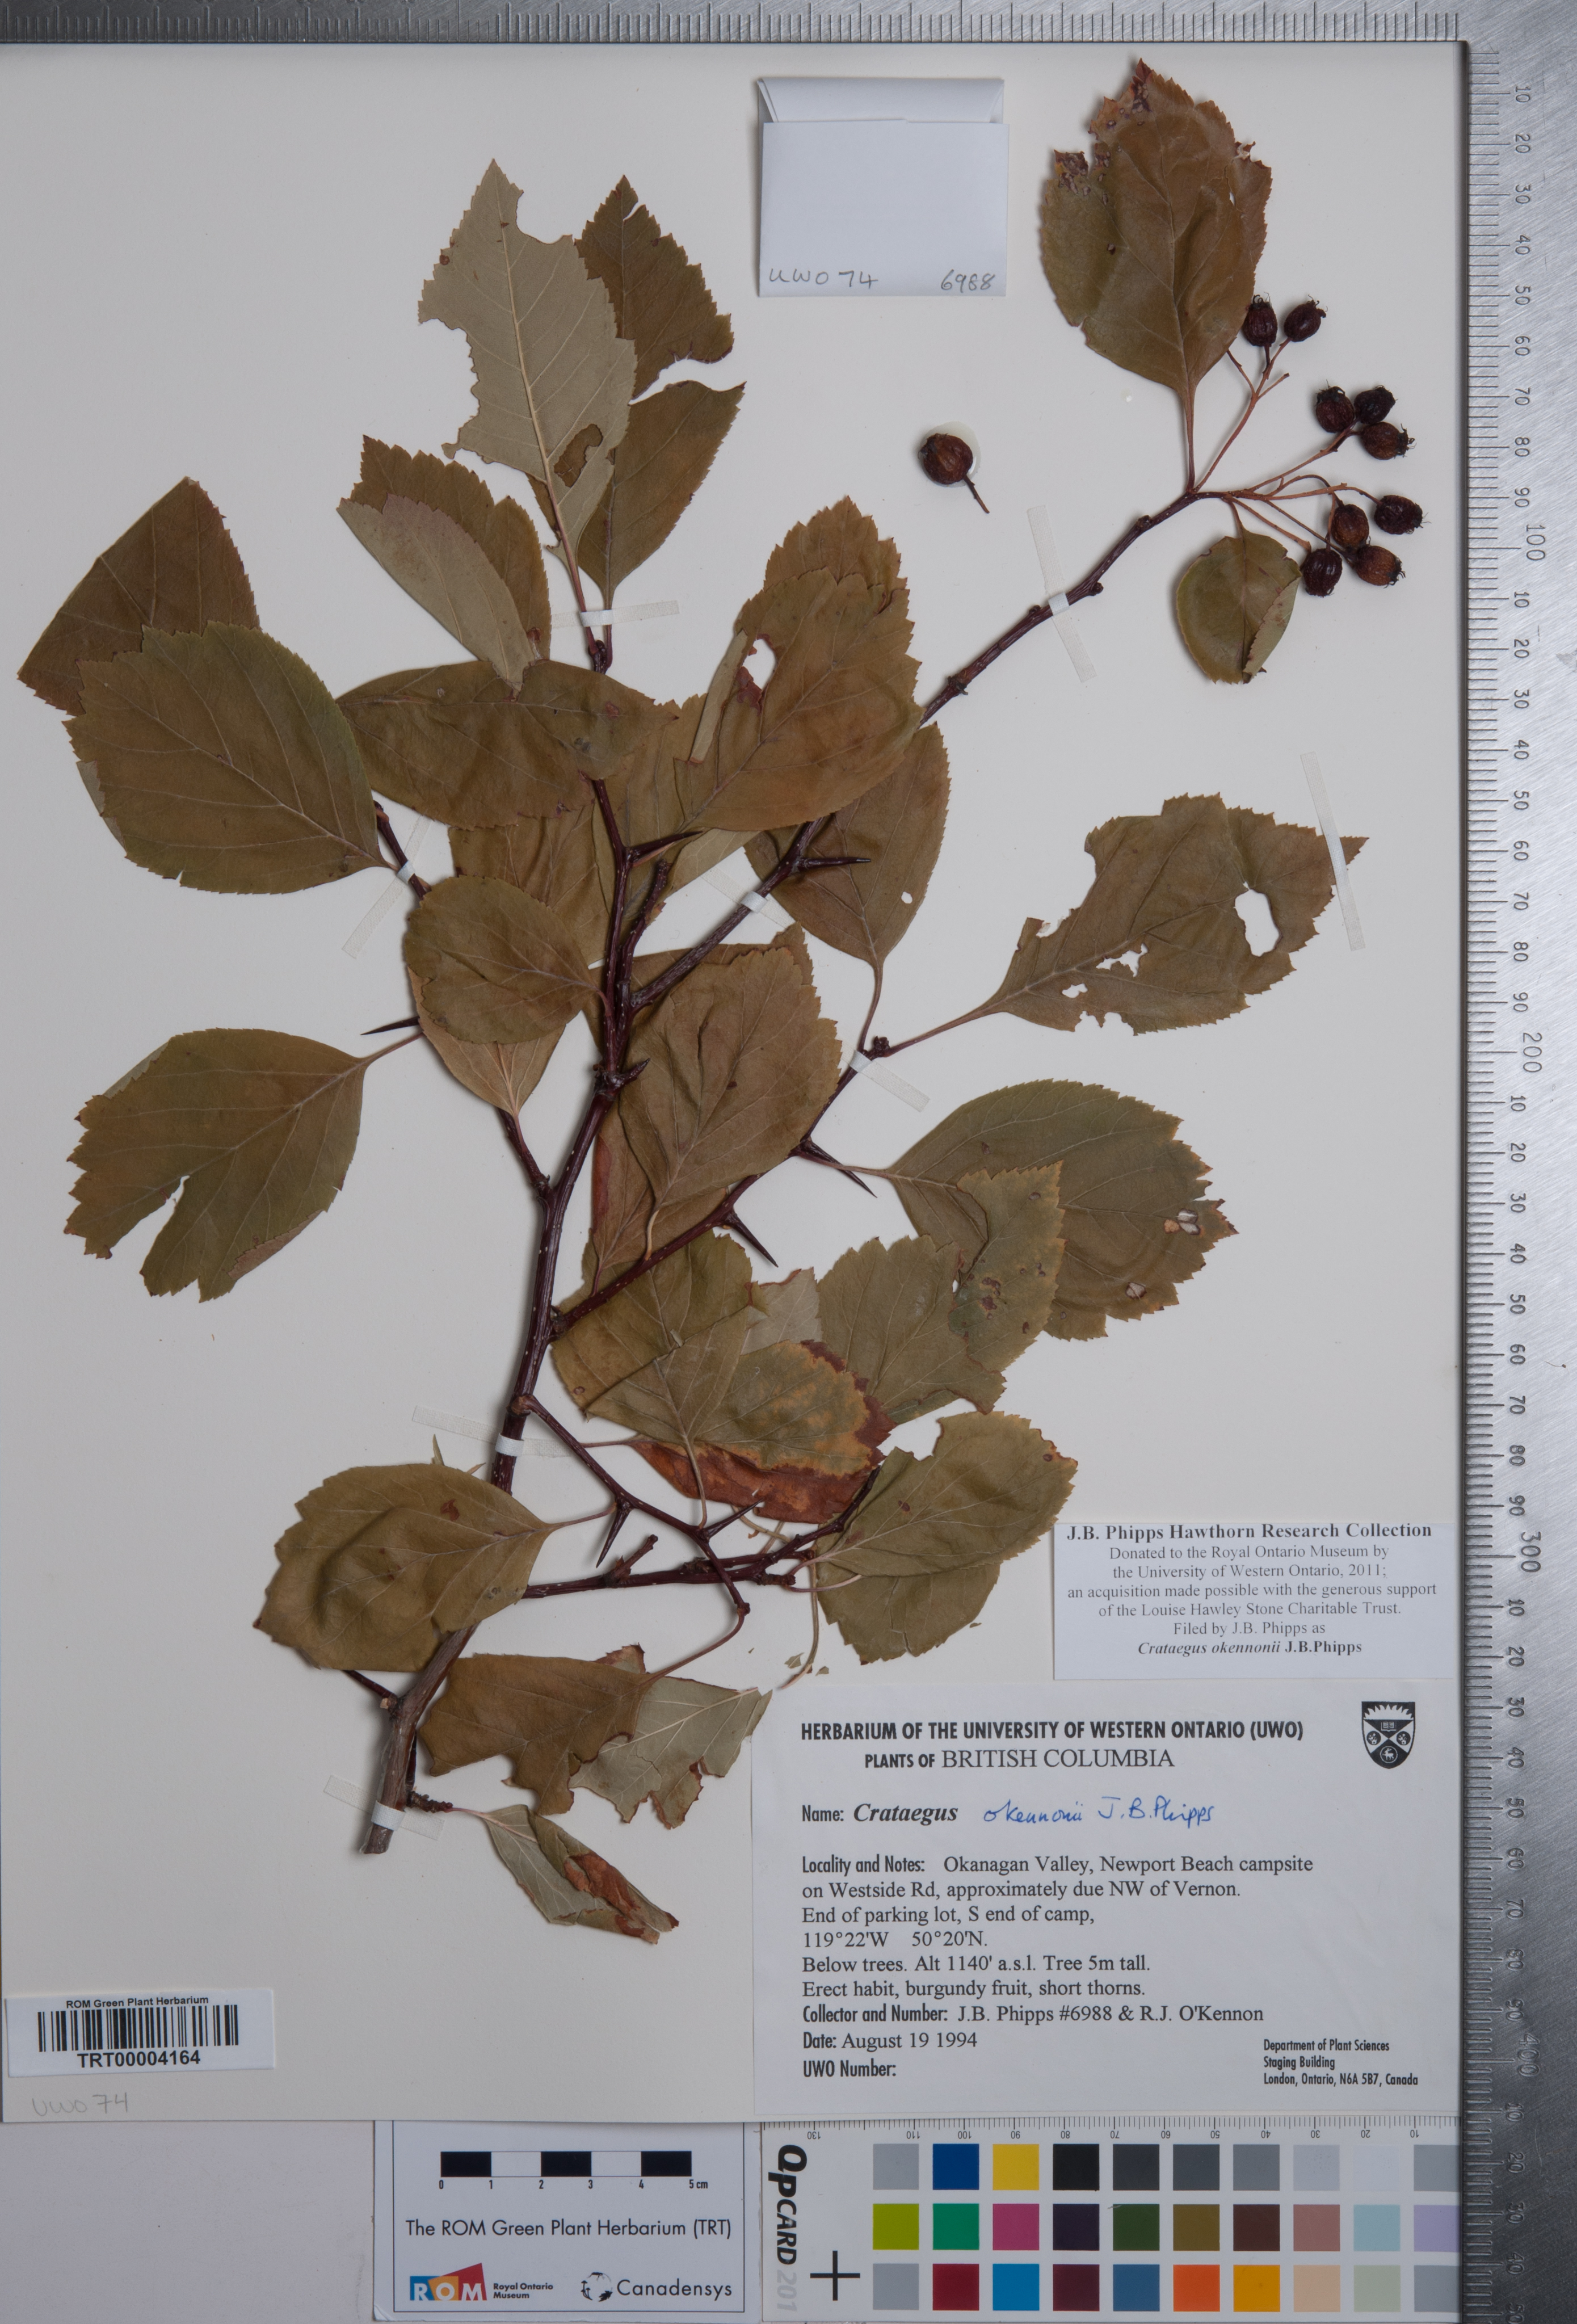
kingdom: Plantae
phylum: Tracheophyta
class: Magnoliopsida
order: Rosales
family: Rosaceae
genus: Crataegus
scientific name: Crataegus okennonii
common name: O'kennon's hawthorn
